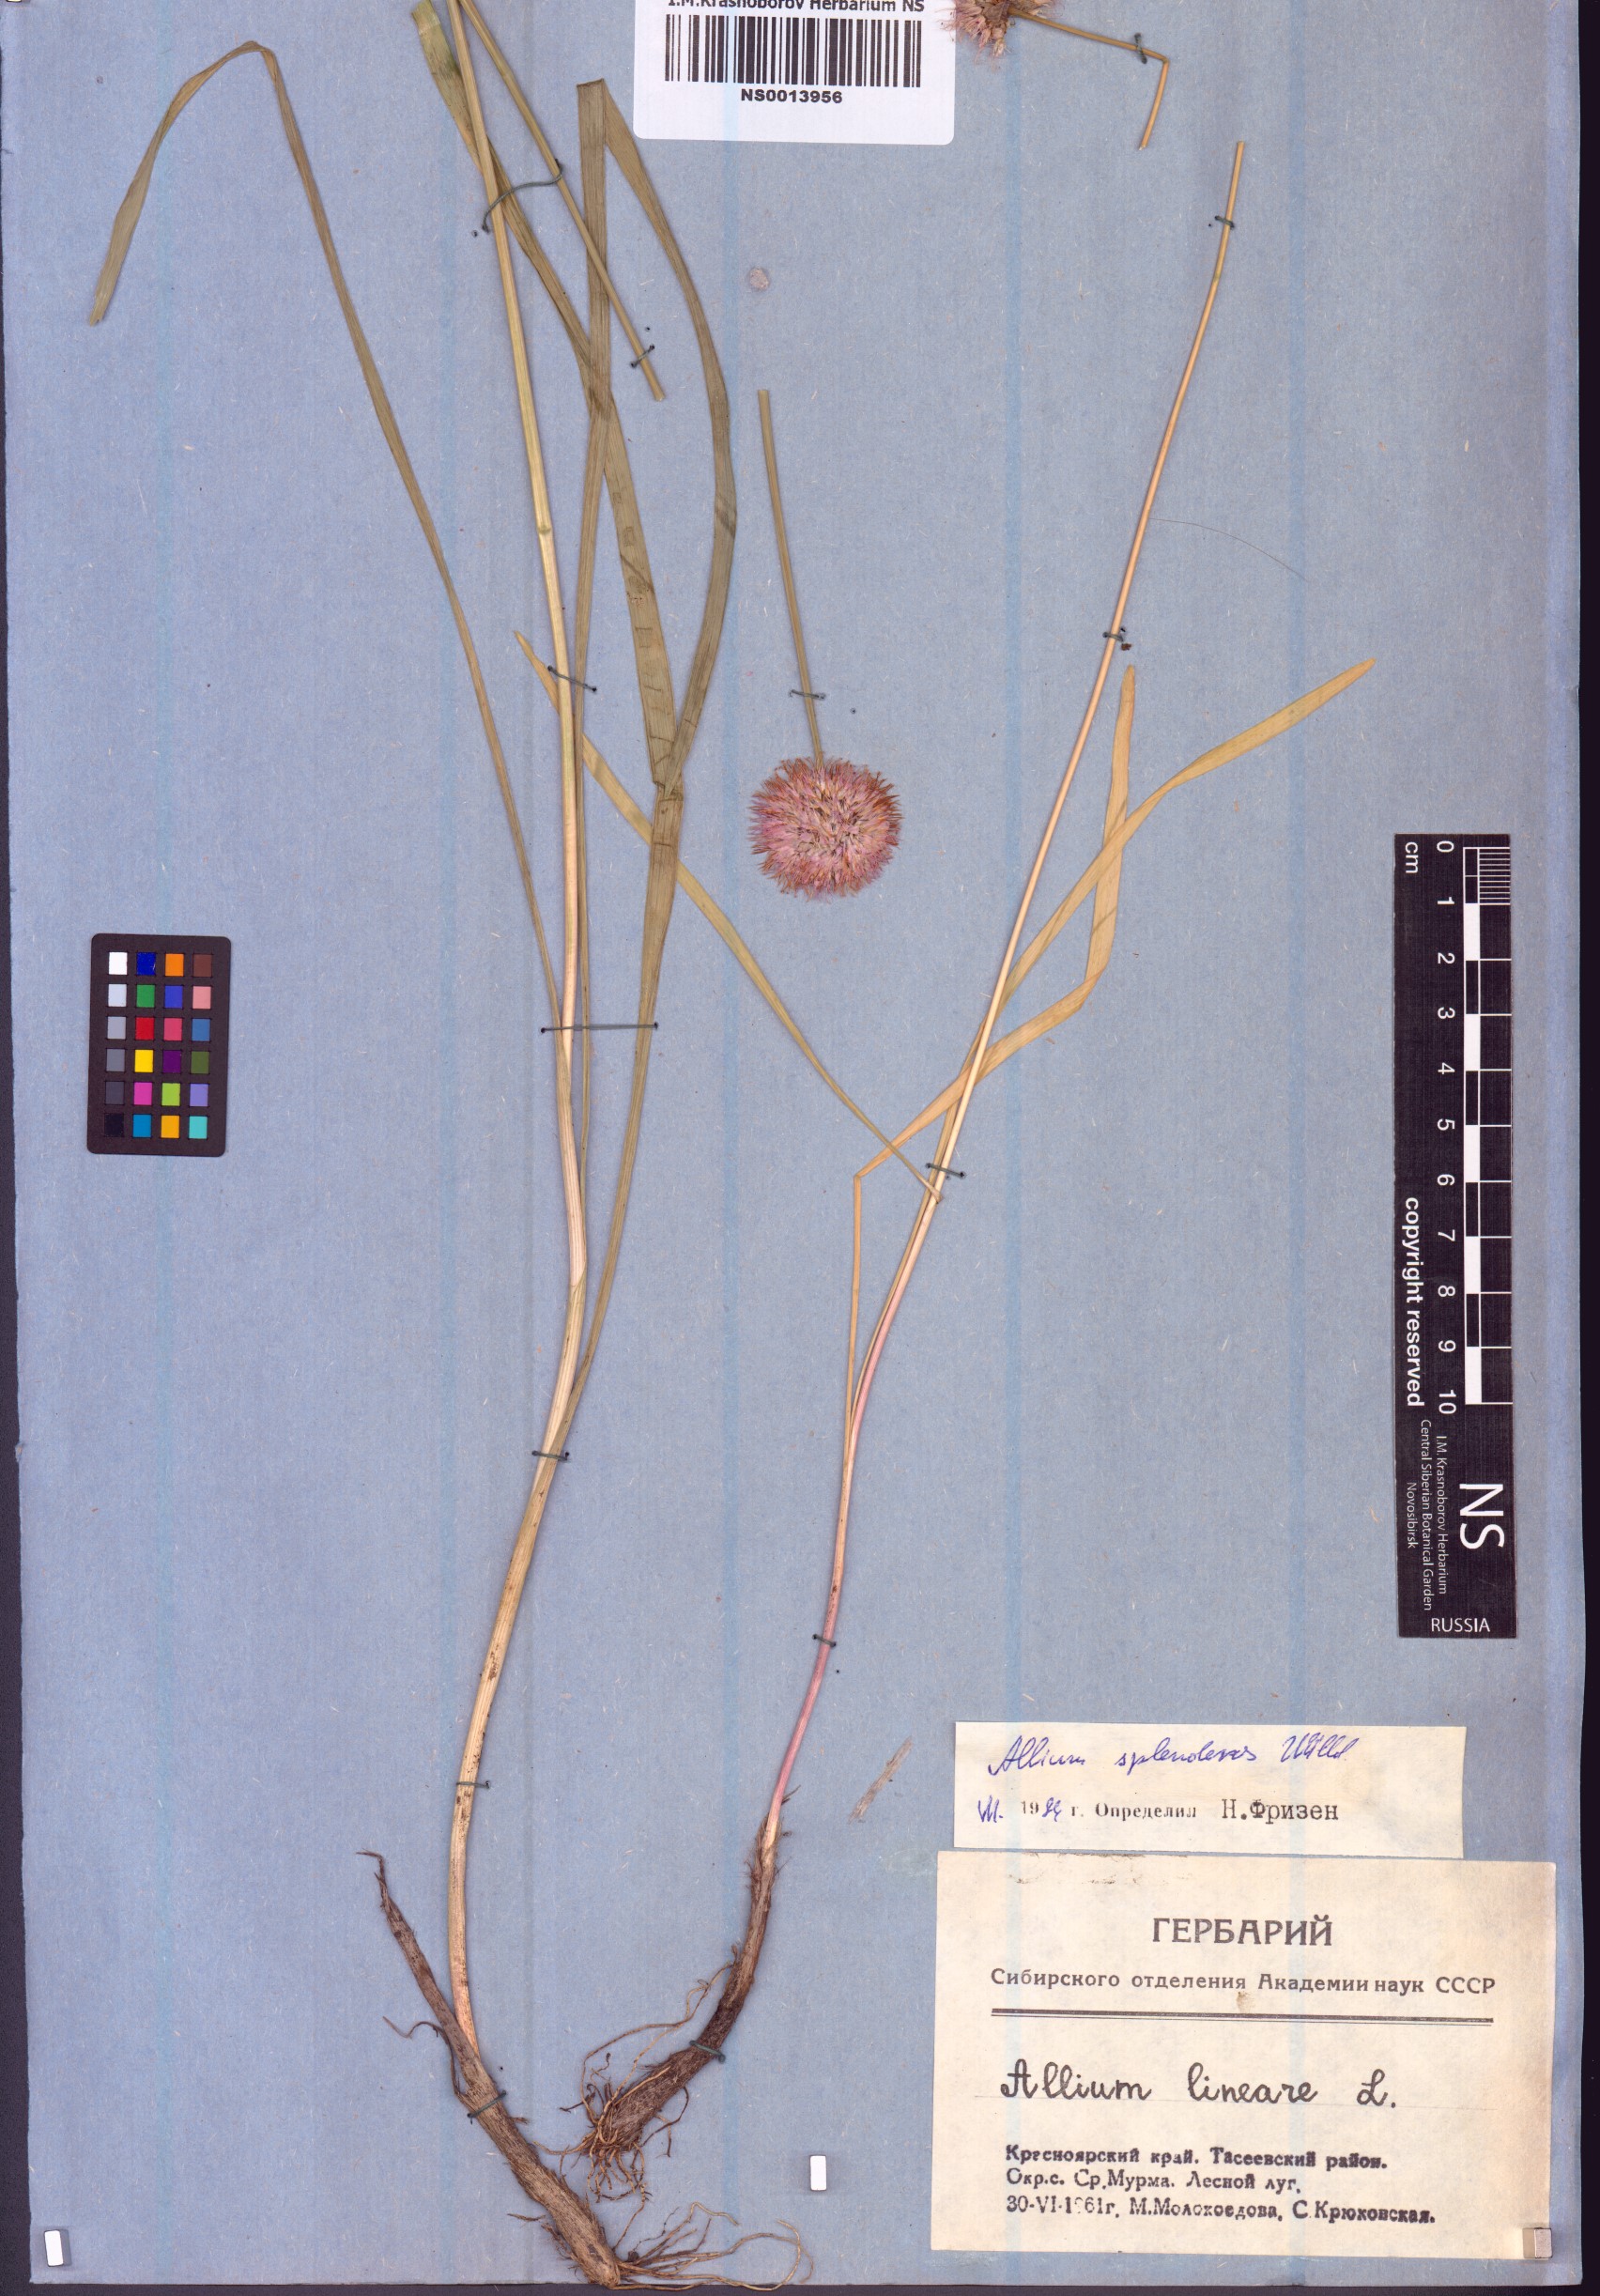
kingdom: Plantae
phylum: Tracheophyta
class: Liliopsida
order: Asparagales
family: Amaryllidaceae
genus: Allium
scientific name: Allium splendens
